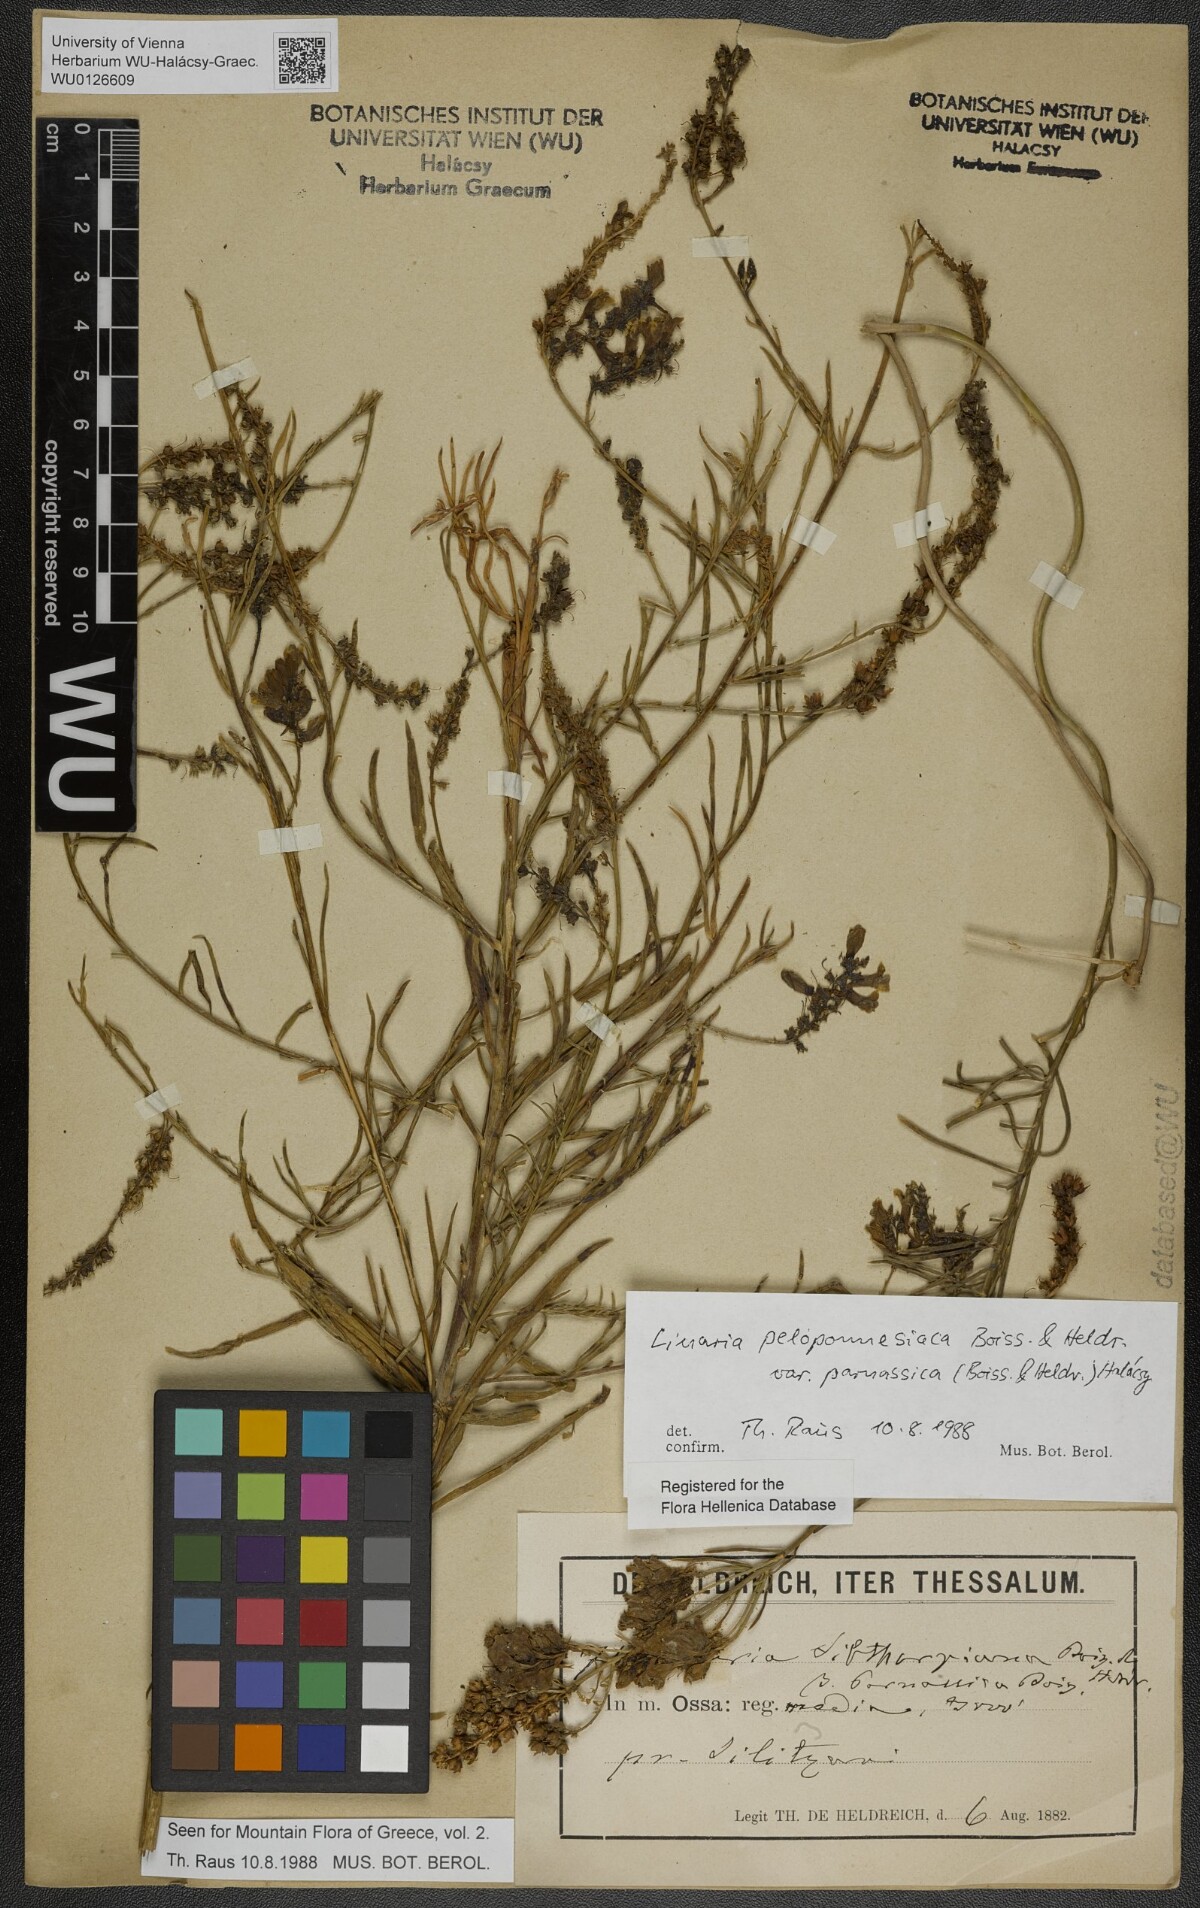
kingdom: Plantae
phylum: Tracheophyta
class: Magnoliopsida
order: Lamiales
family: Plantaginaceae
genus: Linaria
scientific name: Linaria peloponnesiaca
